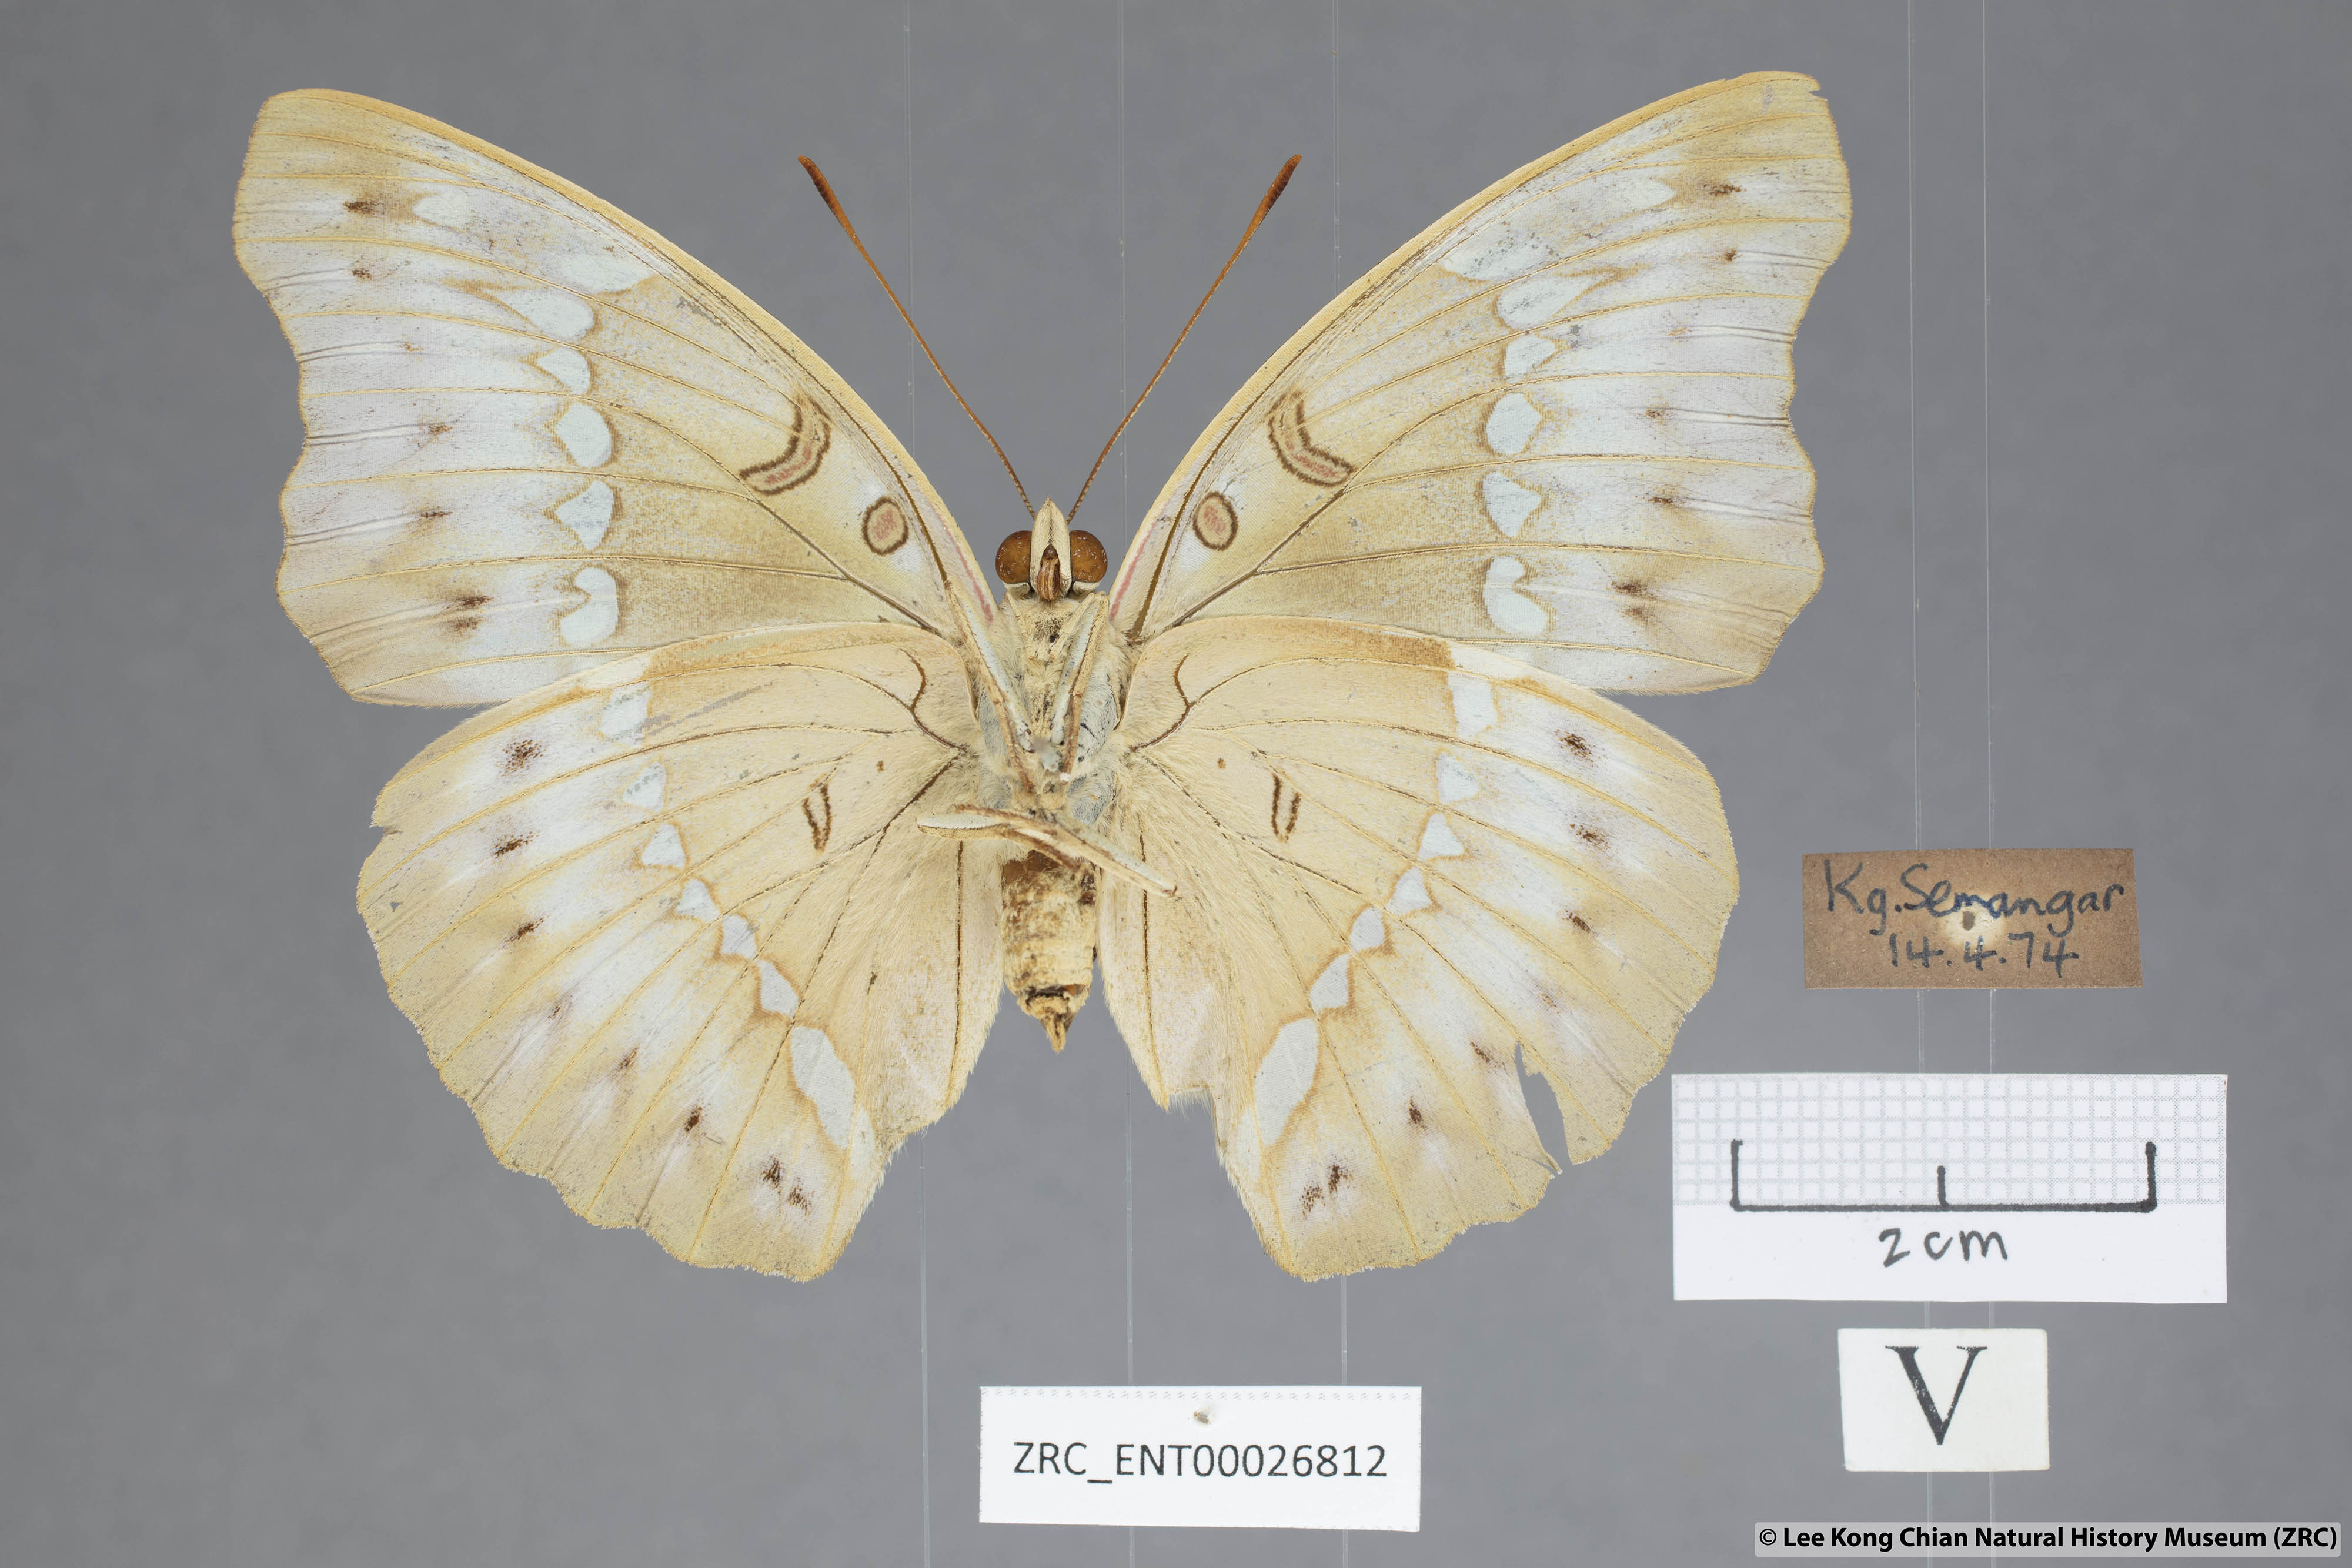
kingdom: Animalia
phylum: Arthropoda
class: Insecta
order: Lepidoptera
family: Nymphalidae
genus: Euthalia
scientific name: Euthalia Bassarona teuta
